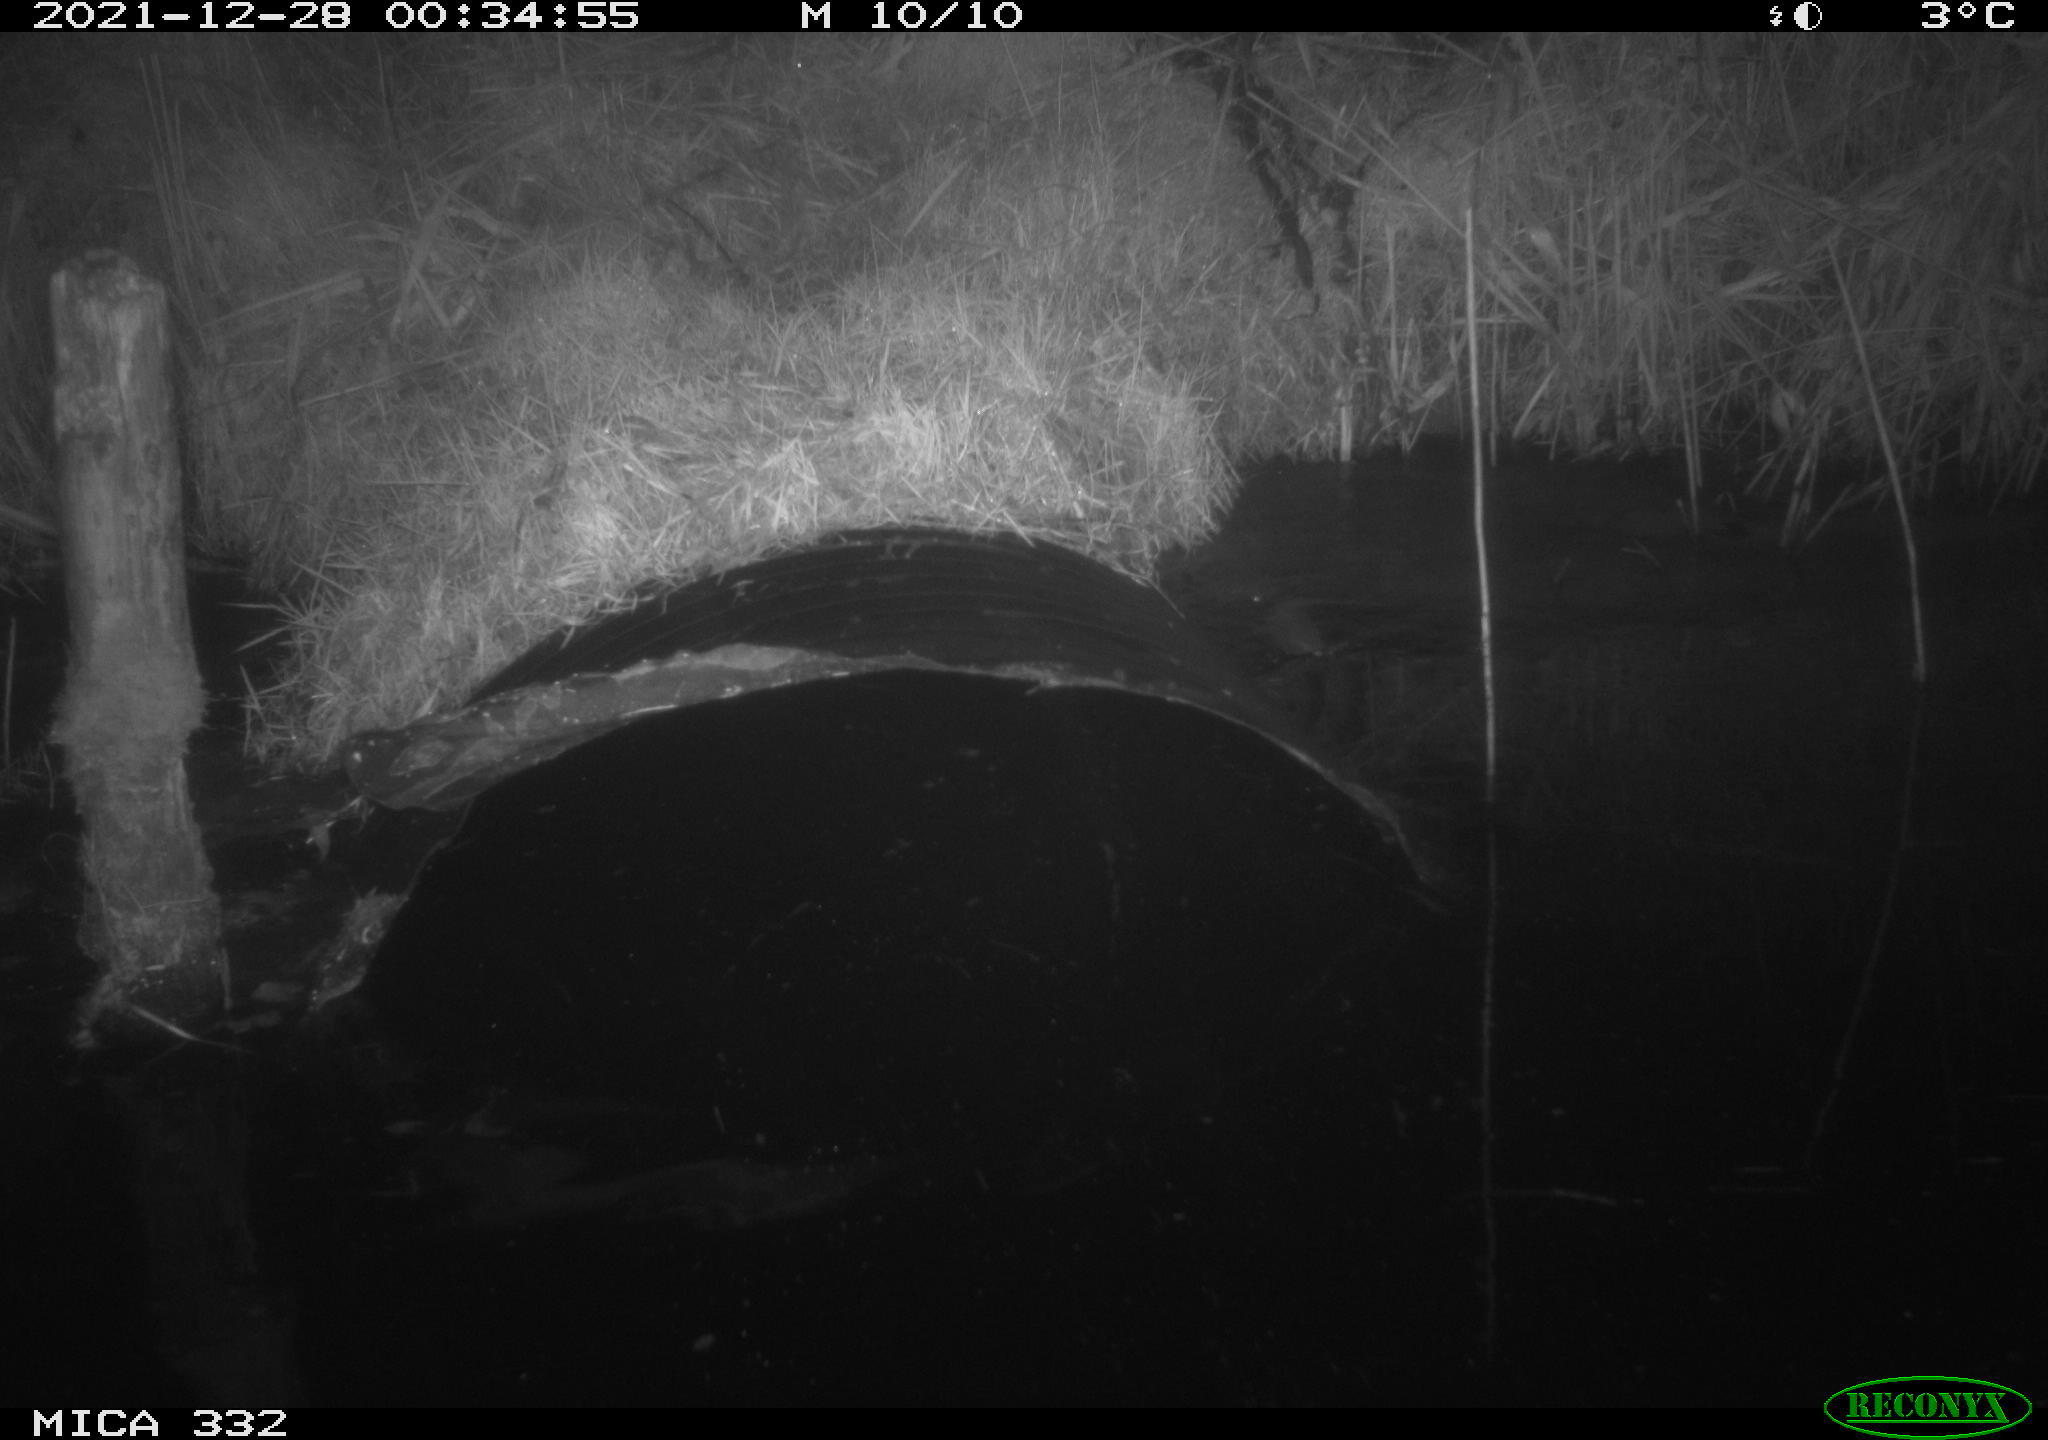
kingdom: Animalia
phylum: Chordata
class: Mammalia
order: Carnivora
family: Mustelidae
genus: Lutra
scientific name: Lutra lutra
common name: European otter
